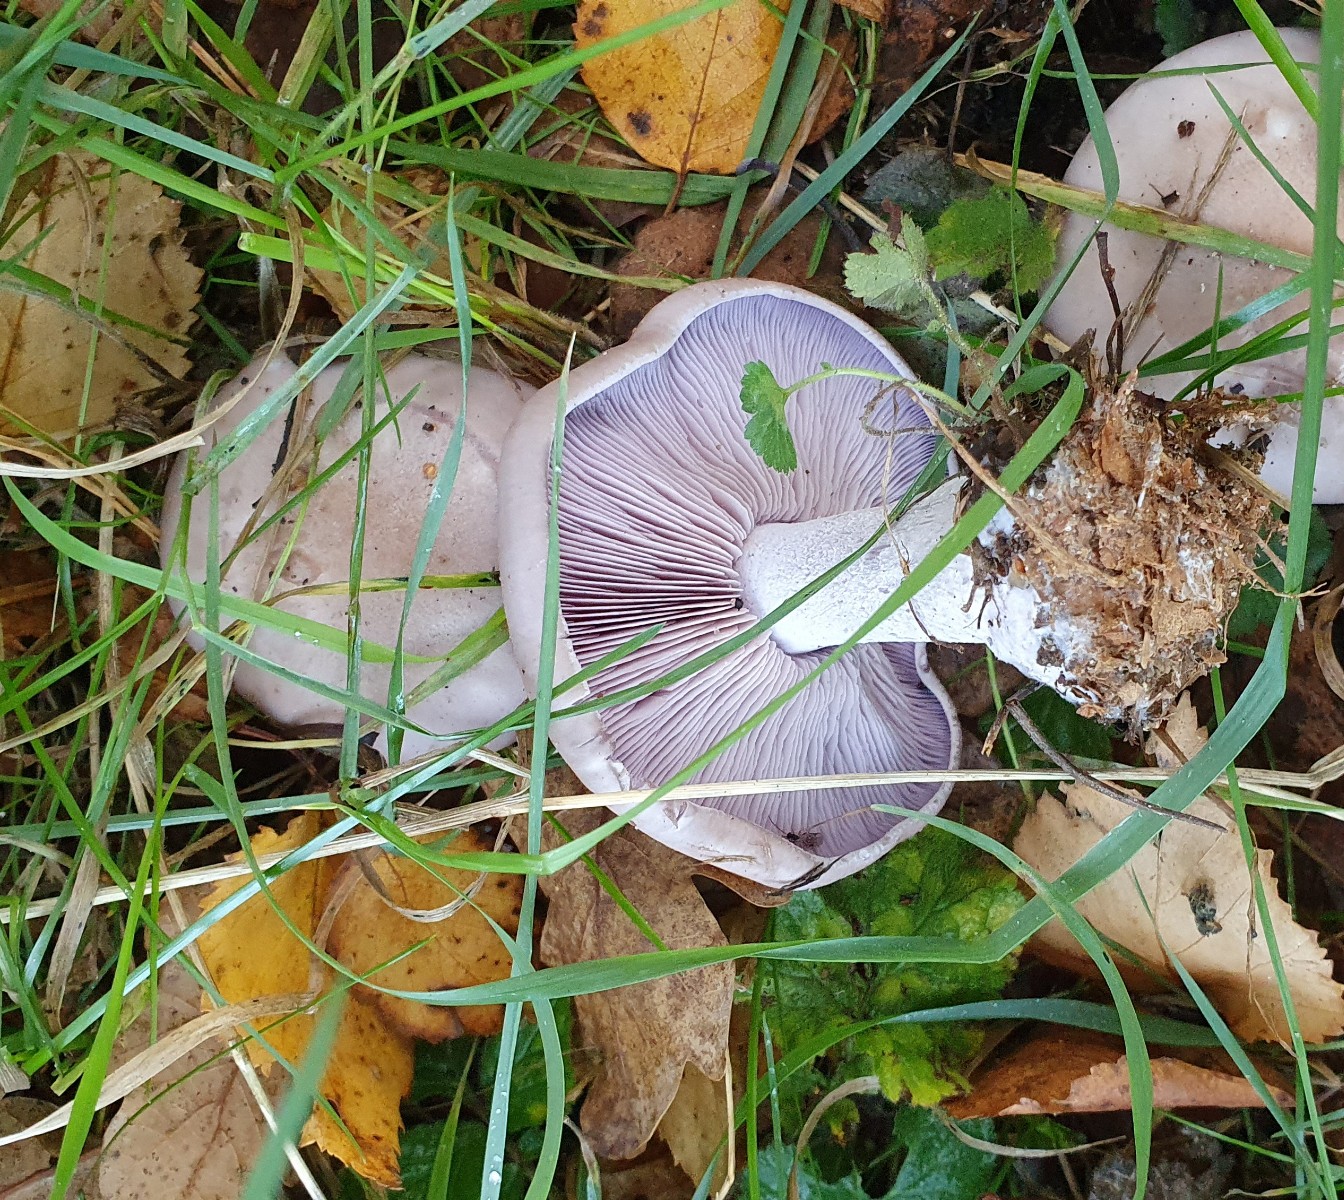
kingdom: Fungi
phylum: Basidiomycota
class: Agaricomycetes
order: Agaricales
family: Tricholomataceae
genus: Lepista
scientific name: Lepista nuda
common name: violet hekseringshat
